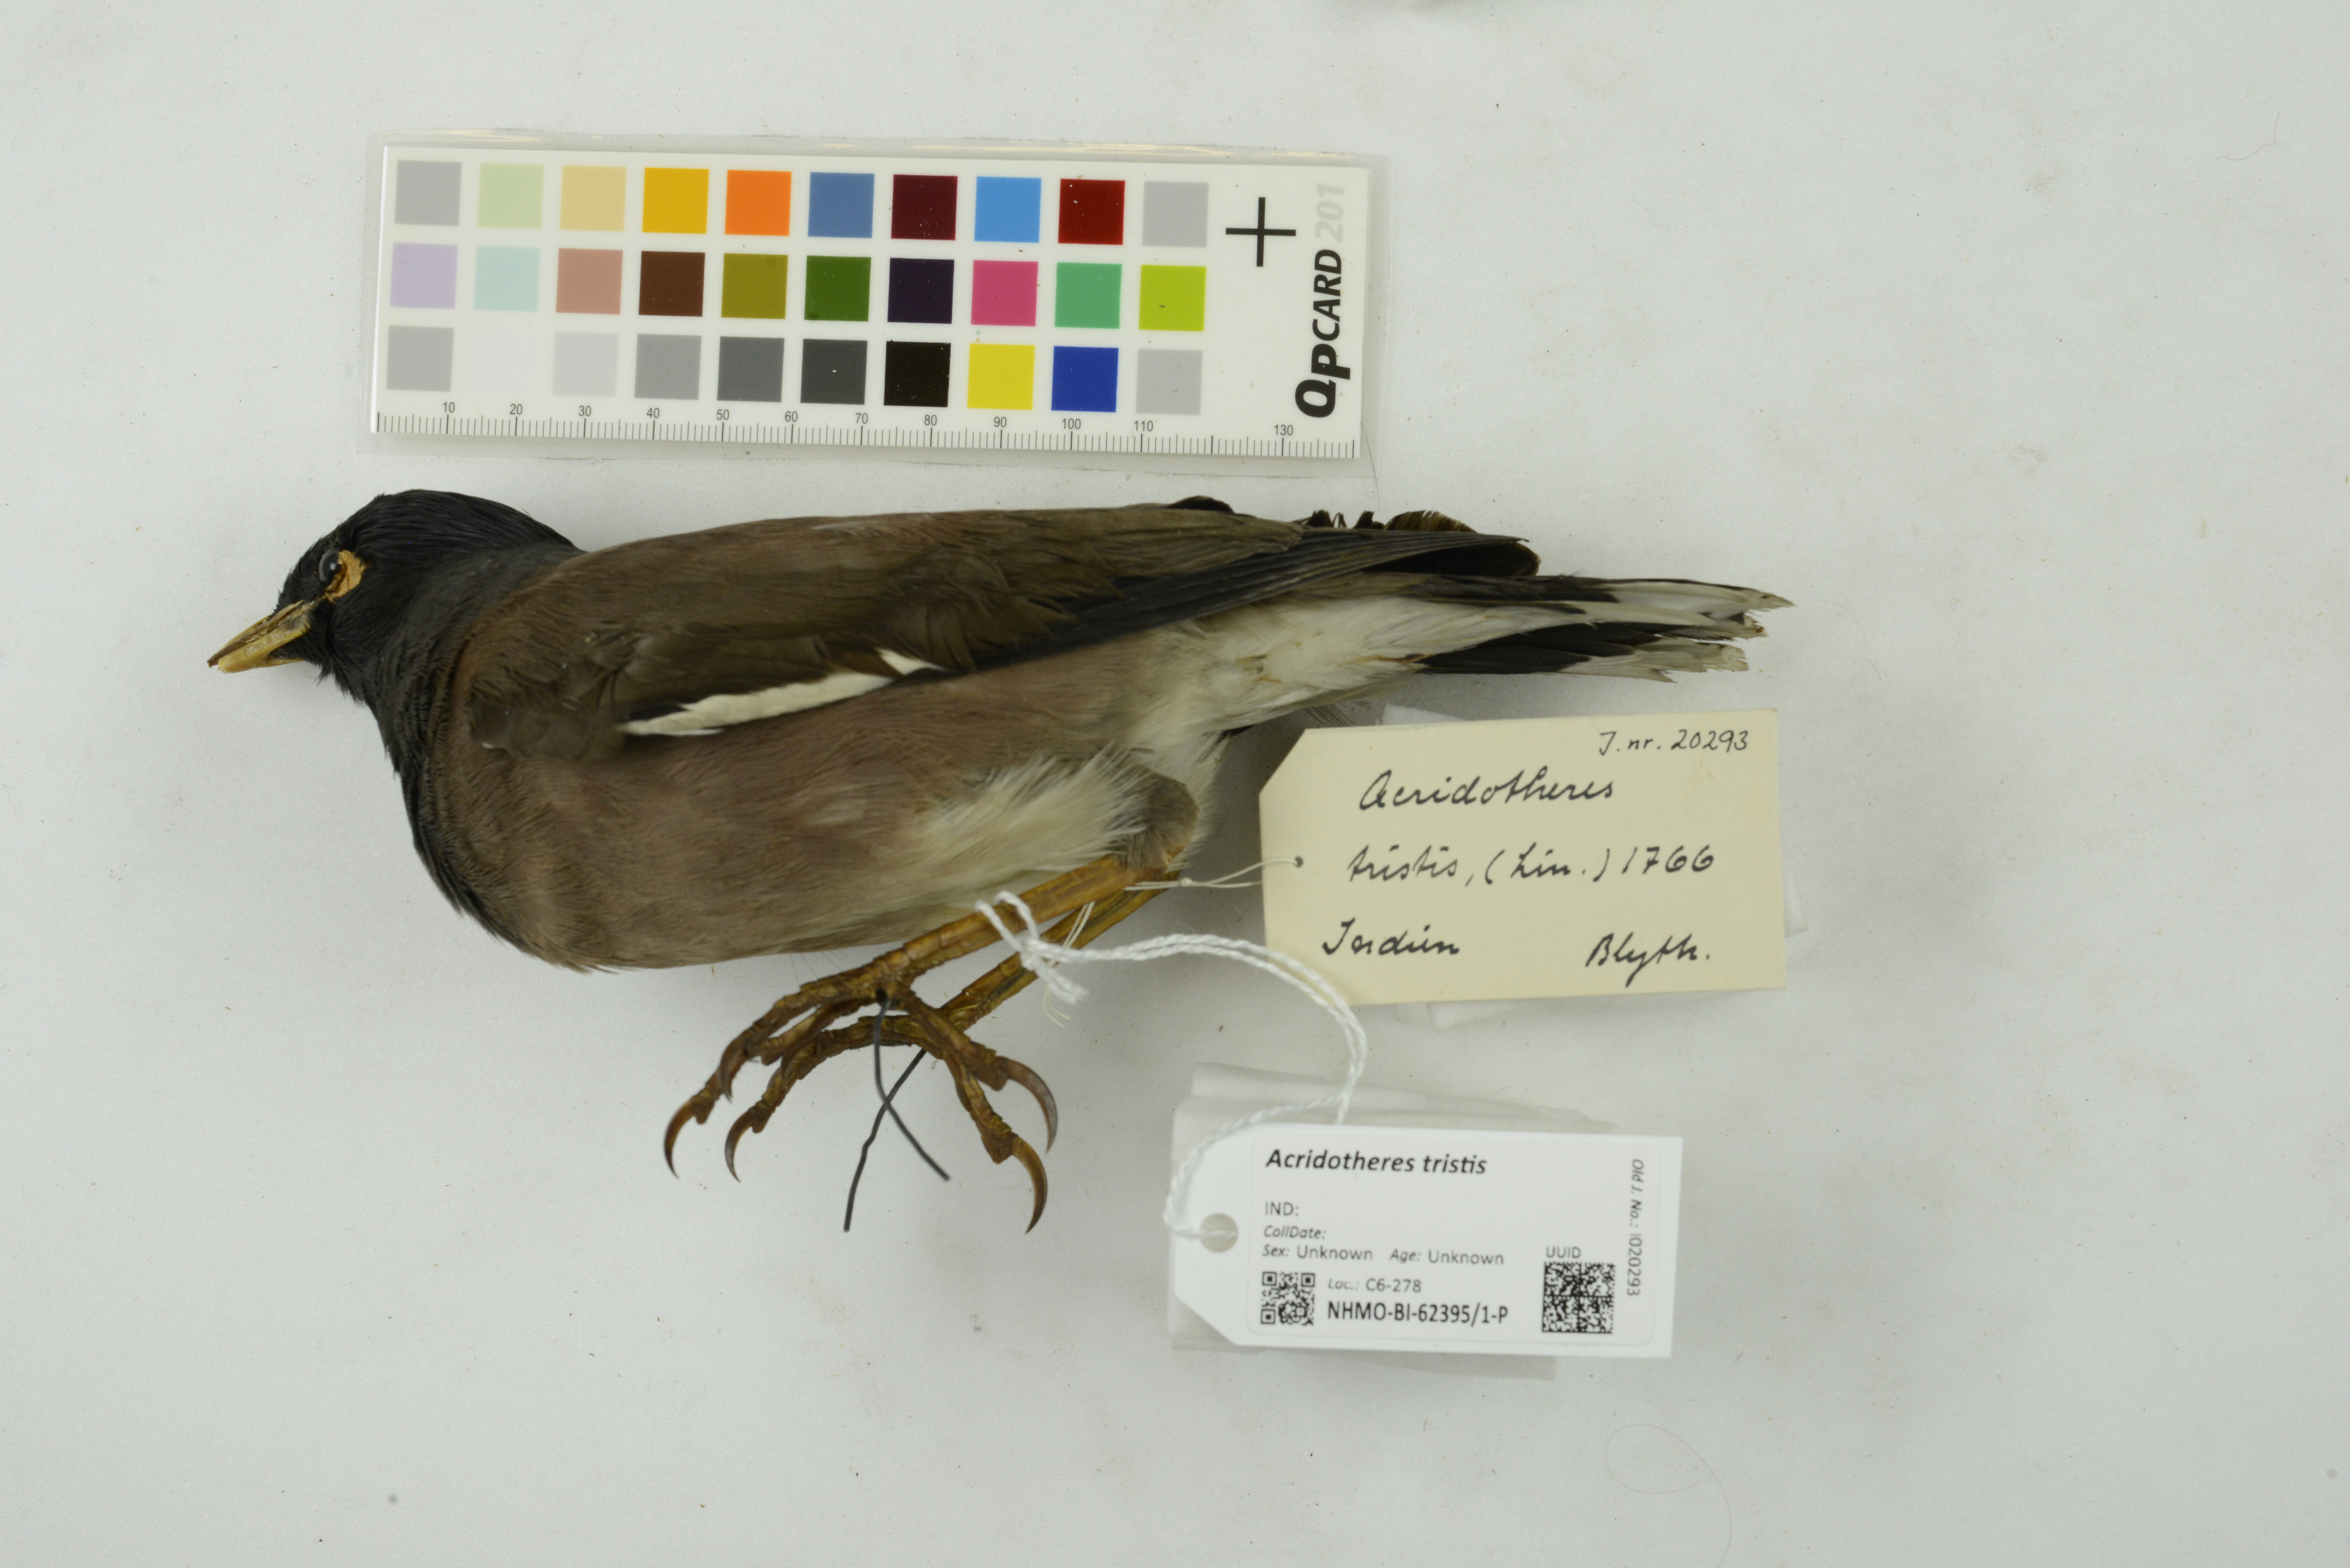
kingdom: Animalia
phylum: Chordata
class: Aves
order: Passeriformes
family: Sturnidae
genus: Acridotheres
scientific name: Acridotheres tristis
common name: Common myna
